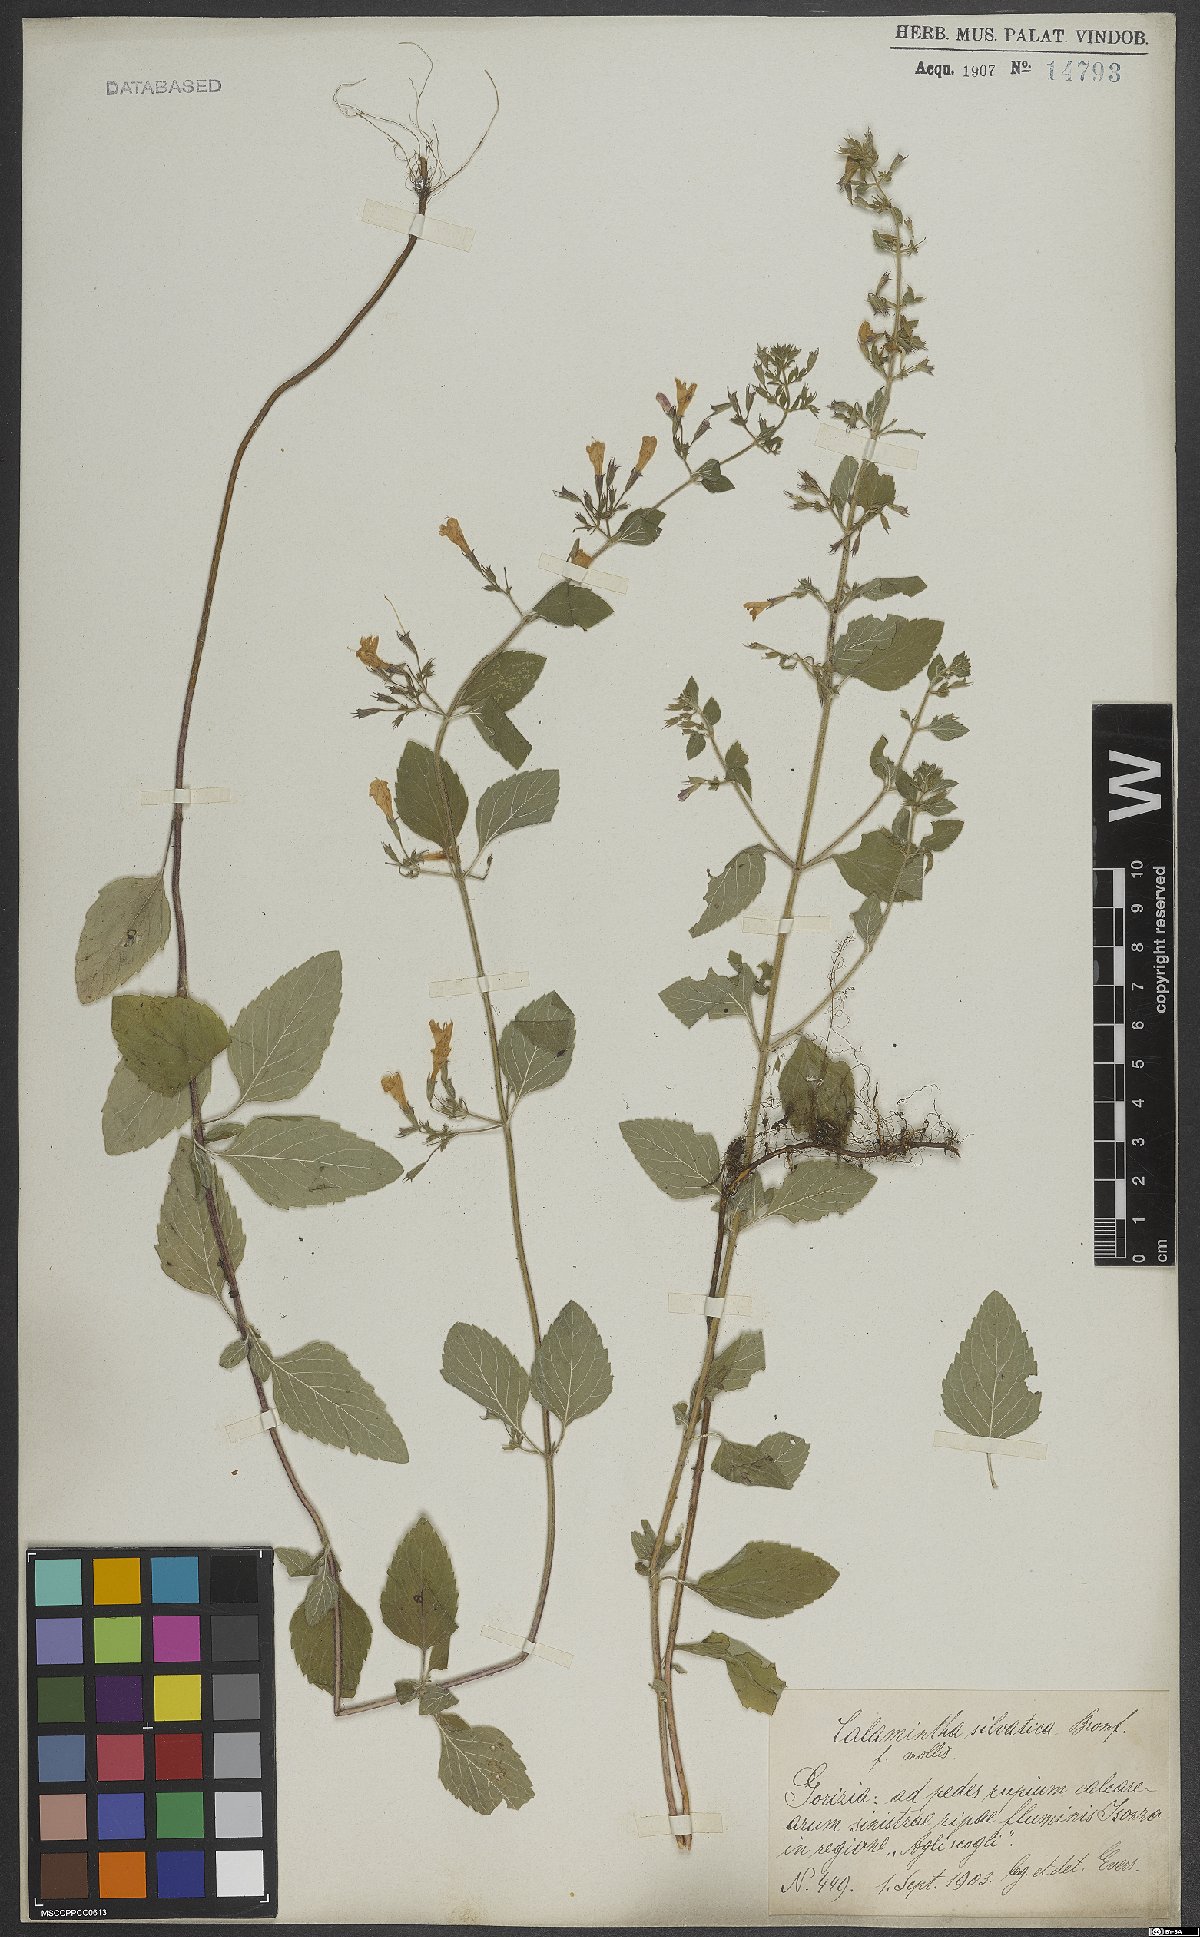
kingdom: Plantae
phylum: Tracheophyta
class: Magnoliopsida
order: Lamiales
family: Lamiaceae
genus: Clinopodium
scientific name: Clinopodium menthifolium
